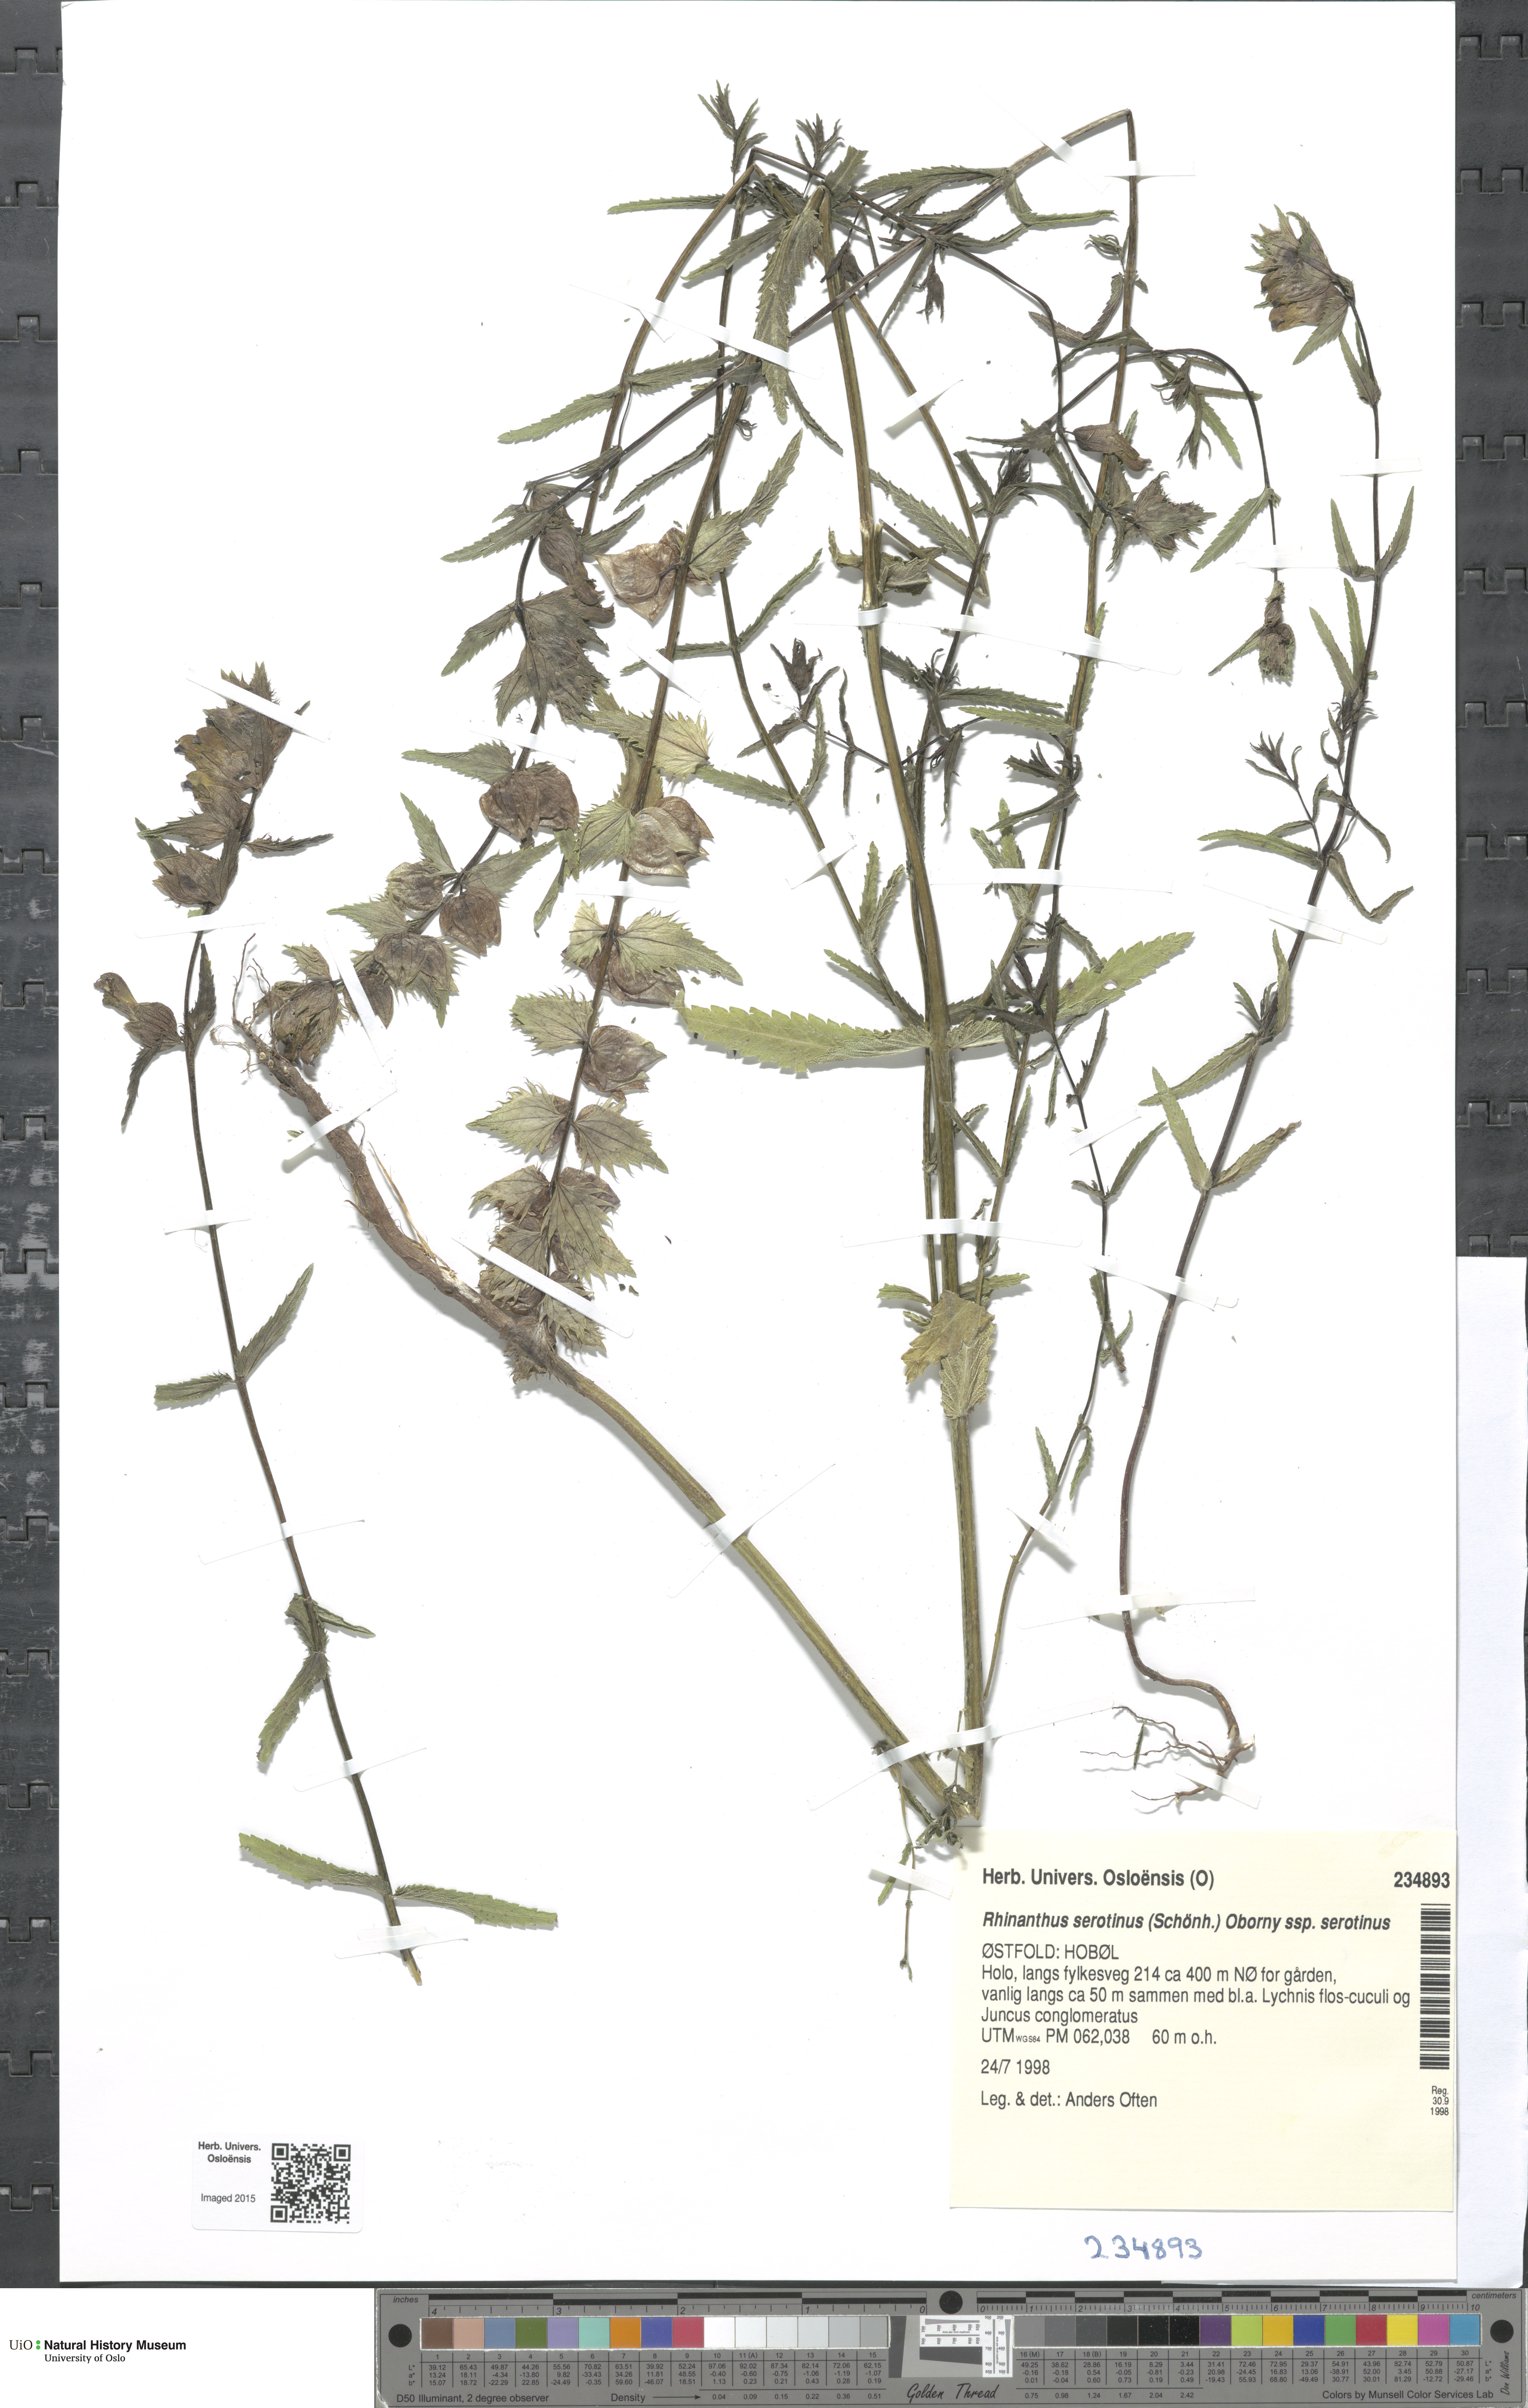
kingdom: Plantae
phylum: Tracheophyta
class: Magnoliopsida
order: Lamiales
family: Orobanchaceae
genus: Rhinanthus
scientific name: Rhinanthus
